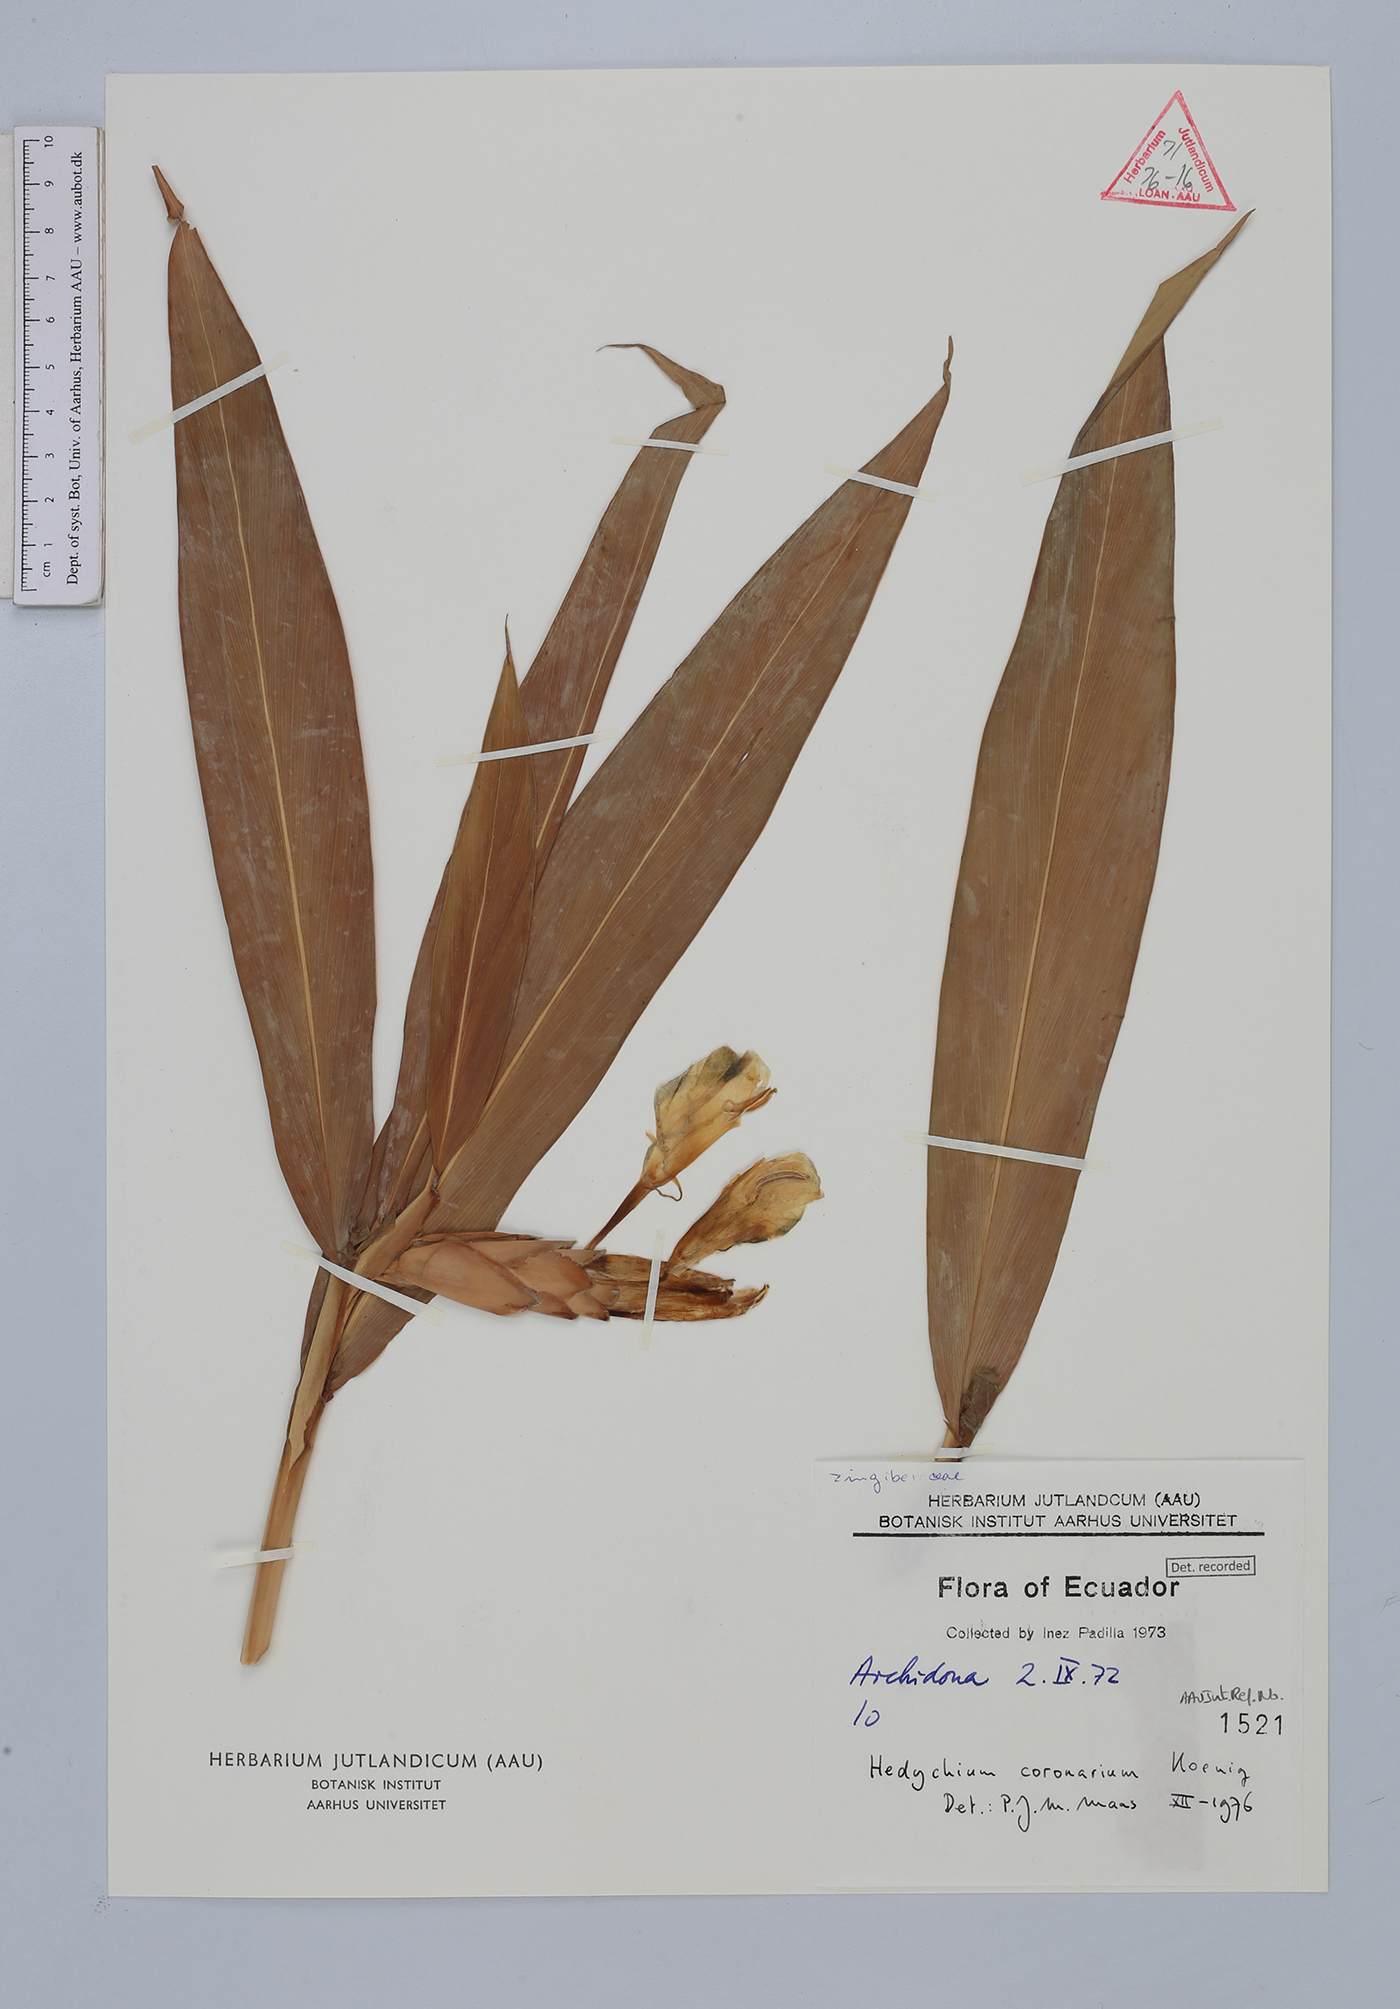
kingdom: Plantae
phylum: Tracheophyta
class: Liliopsida
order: Zingiberales
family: Zingiberaceae
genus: Hedychium
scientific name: Hedychium coronarium
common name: White garland-lily
